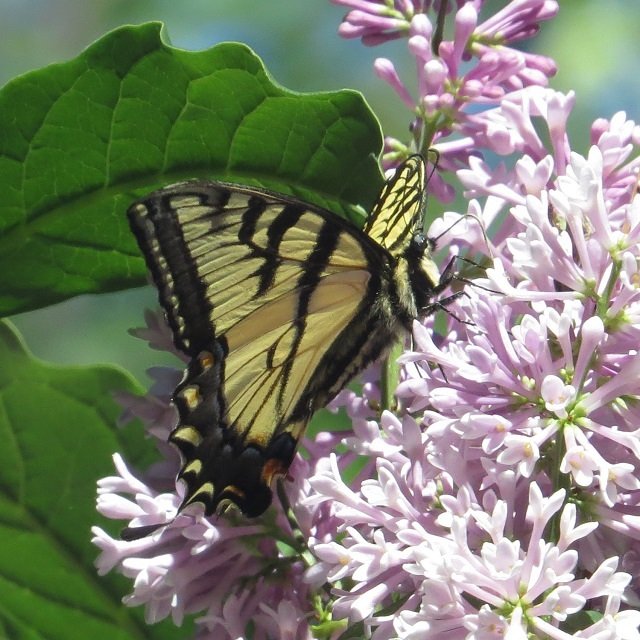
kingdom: Animalia
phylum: Arthropoda
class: Insecta
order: Lepidoptera
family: Papilionidae
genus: Pterourus
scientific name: Pterourus glaucus
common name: Eastern Tiger Swallowtail
